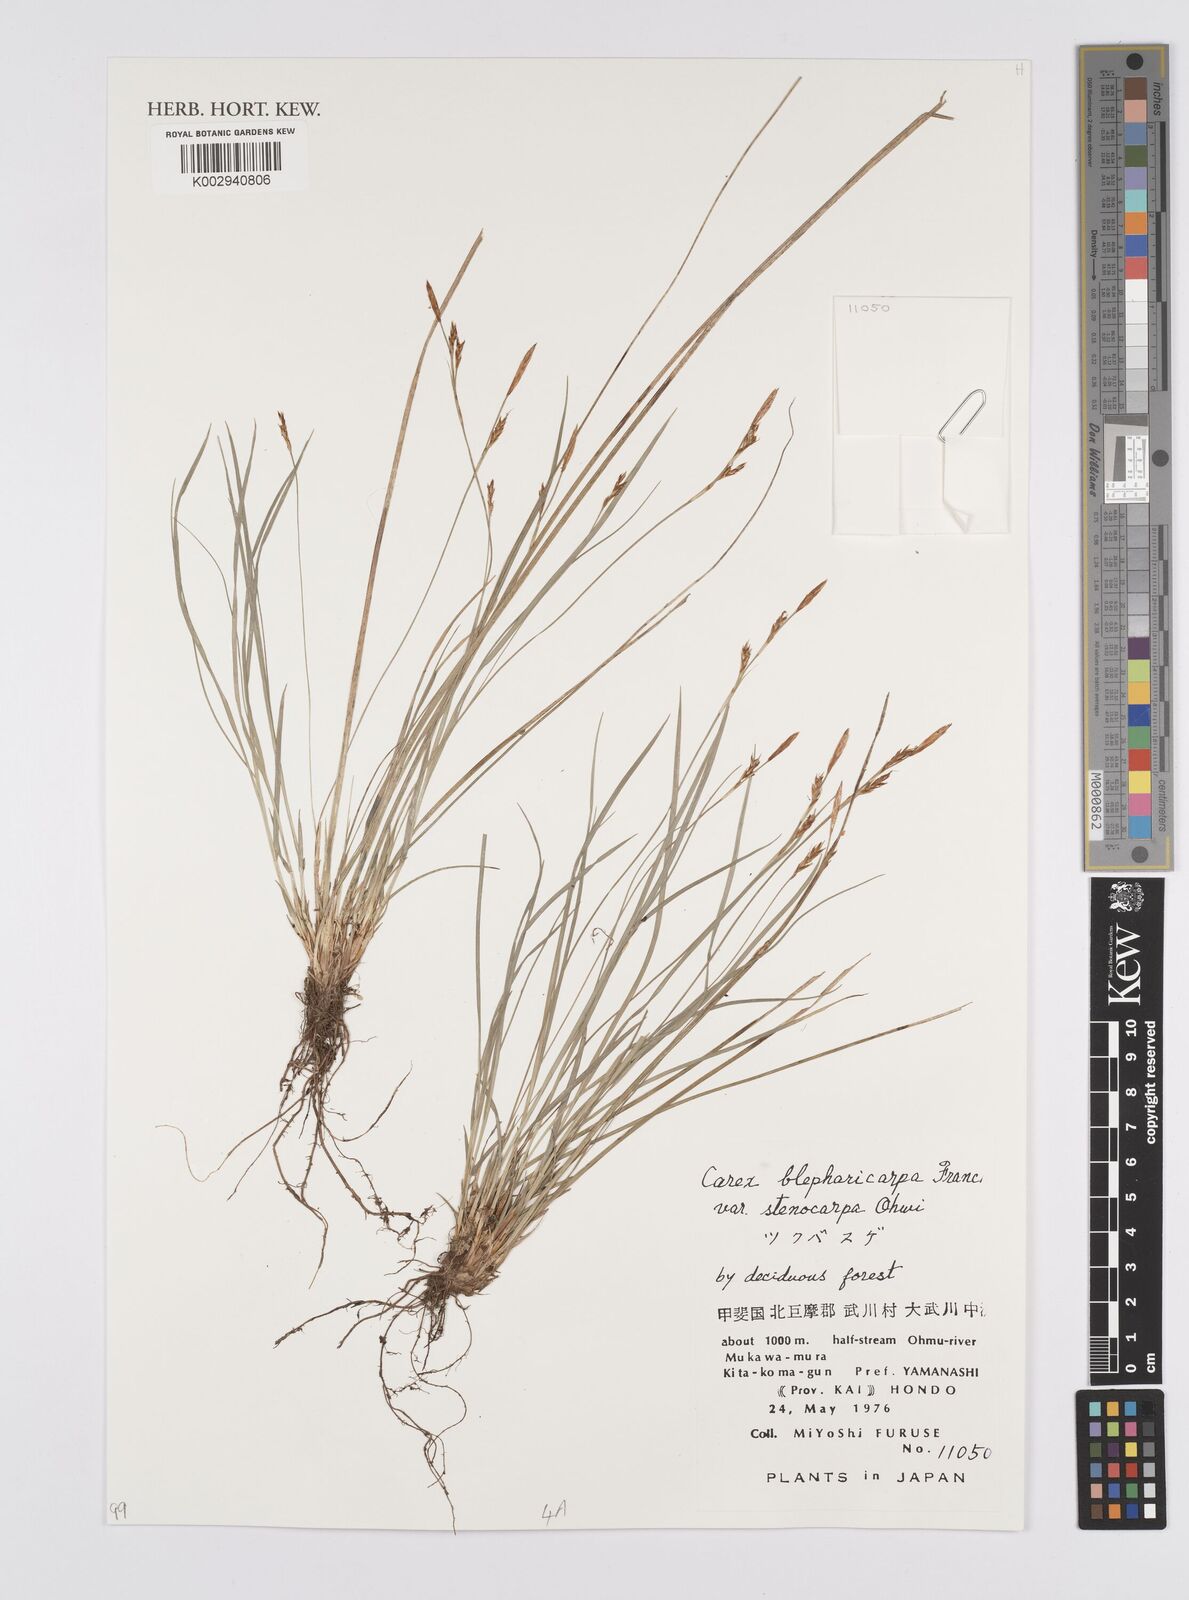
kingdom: Plantae
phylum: Tracheophyta
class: Liliopsida
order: Poales
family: Cyperaceae
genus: Carex
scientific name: Carex blepharicarpa
